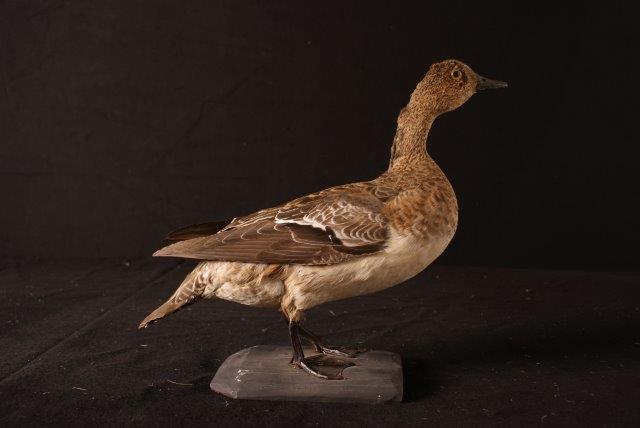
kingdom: Animalia
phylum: Chordata
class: Aves
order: Anseriformes
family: Anatidae
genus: Mareca
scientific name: Mareca penelope
